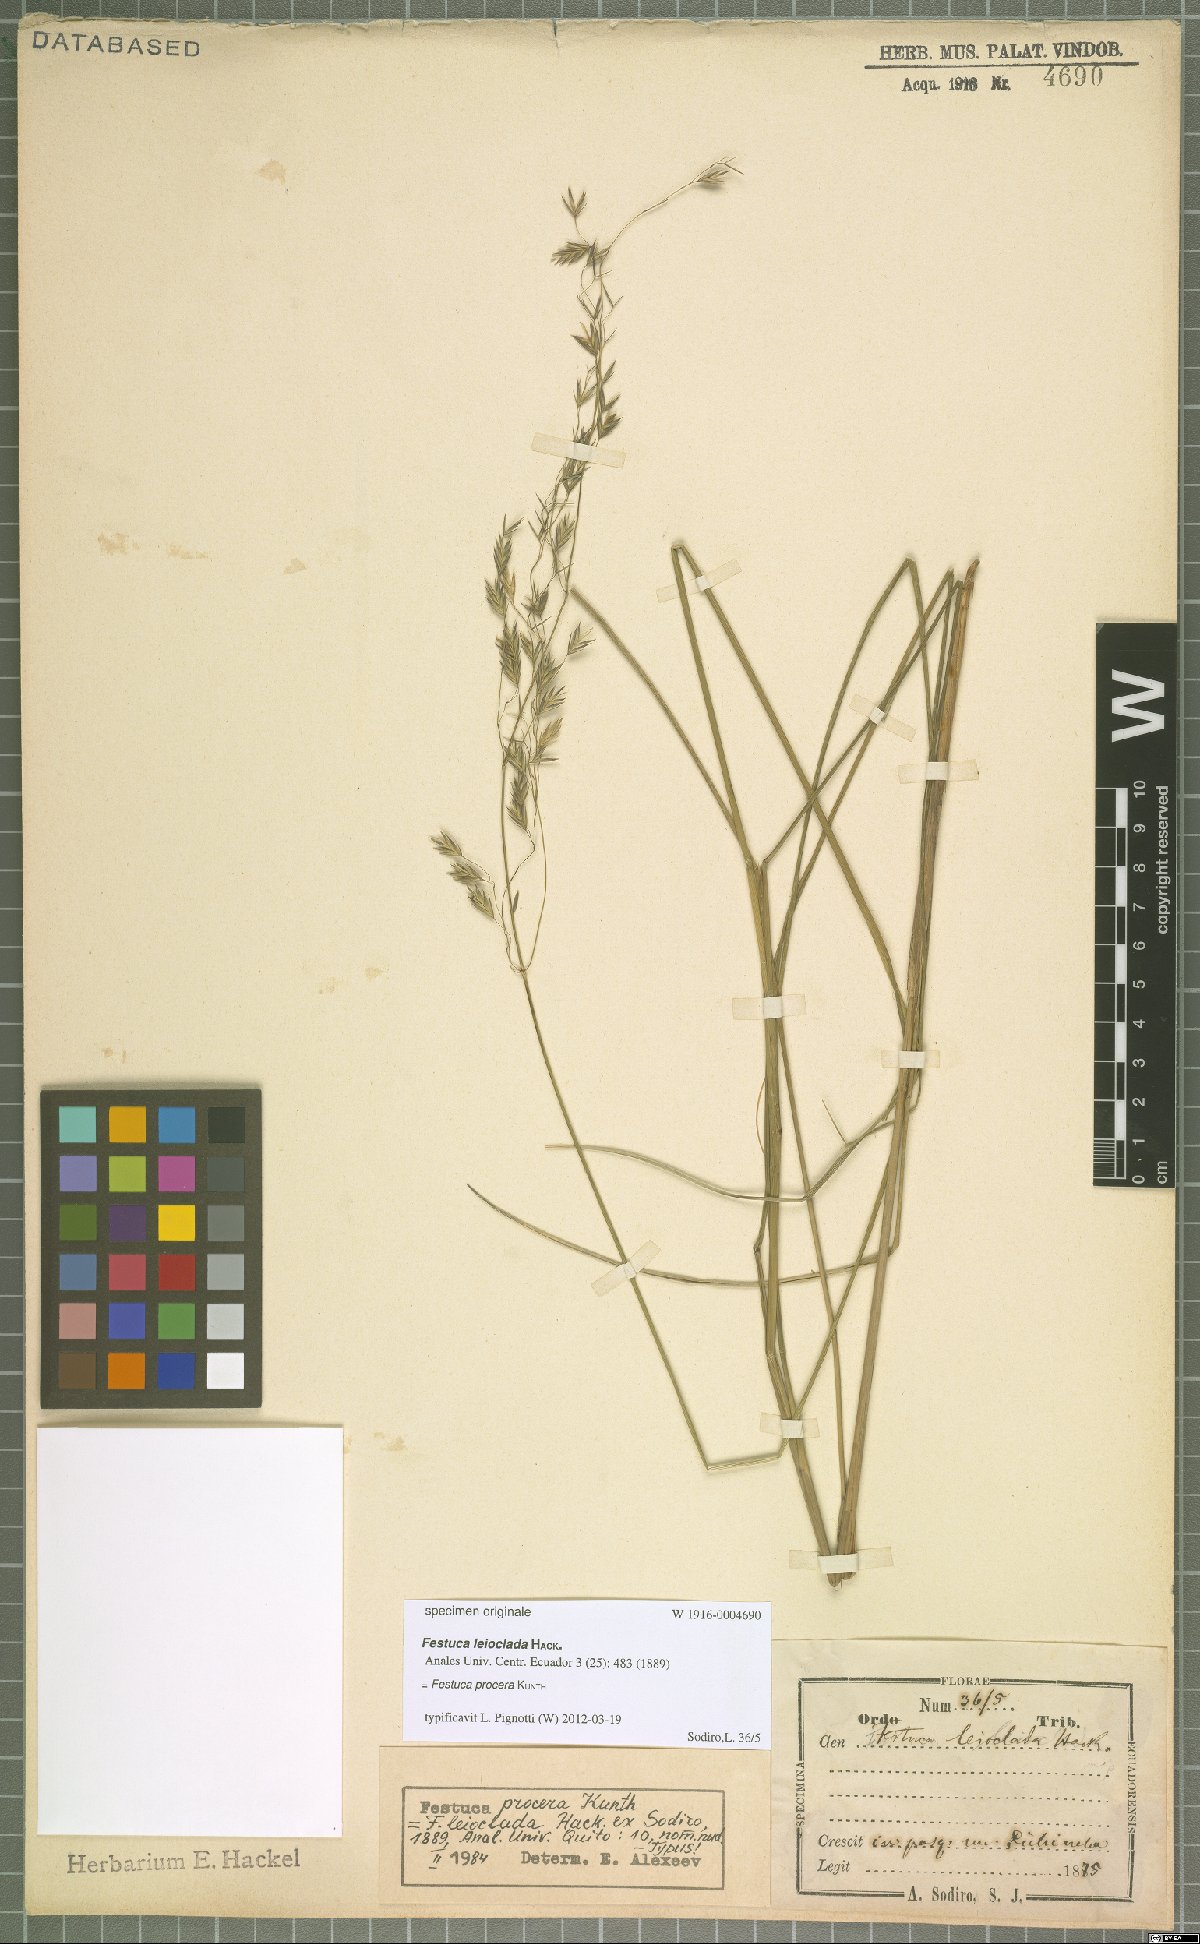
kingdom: Plantae
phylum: Tracheophyta
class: Liliopsida
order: Poales
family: Poaceae
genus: Festuca
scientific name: Festuca procera
